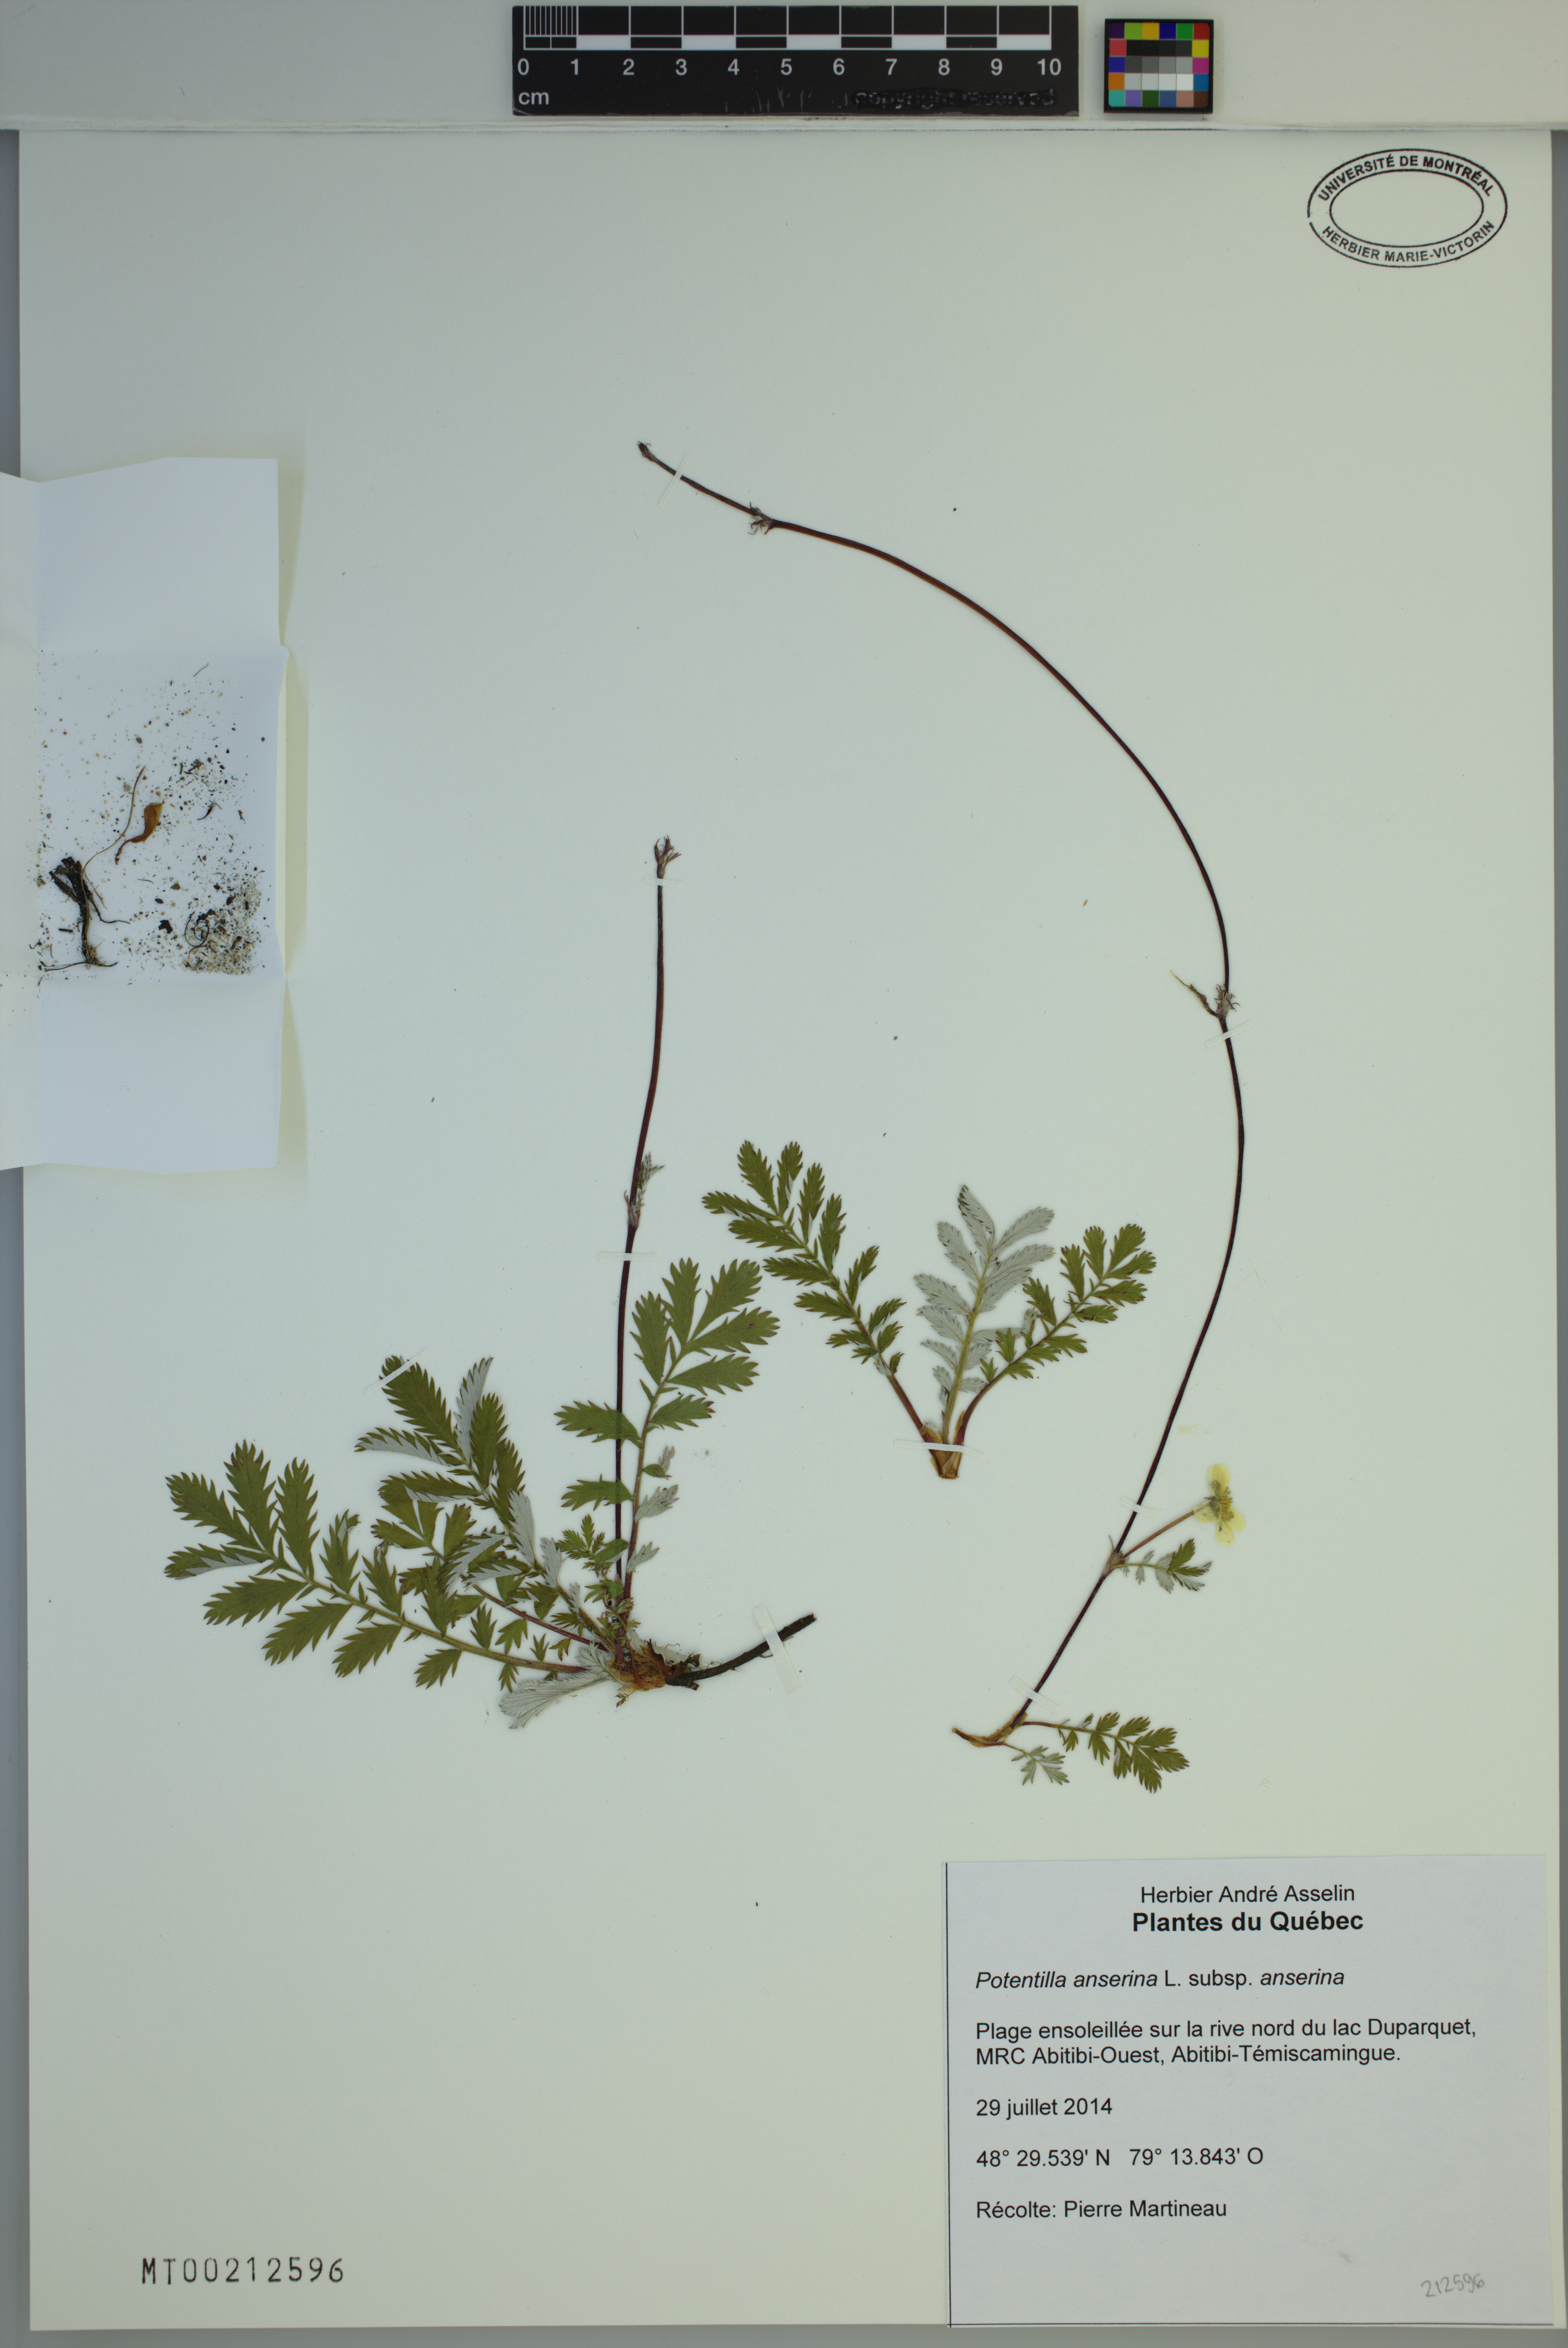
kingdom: Plantae
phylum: Tracheophyta
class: Magnoliopsida
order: Rosales
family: Rosaceae
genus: Argentina
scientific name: Argentina anserina
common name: Common silverweed
